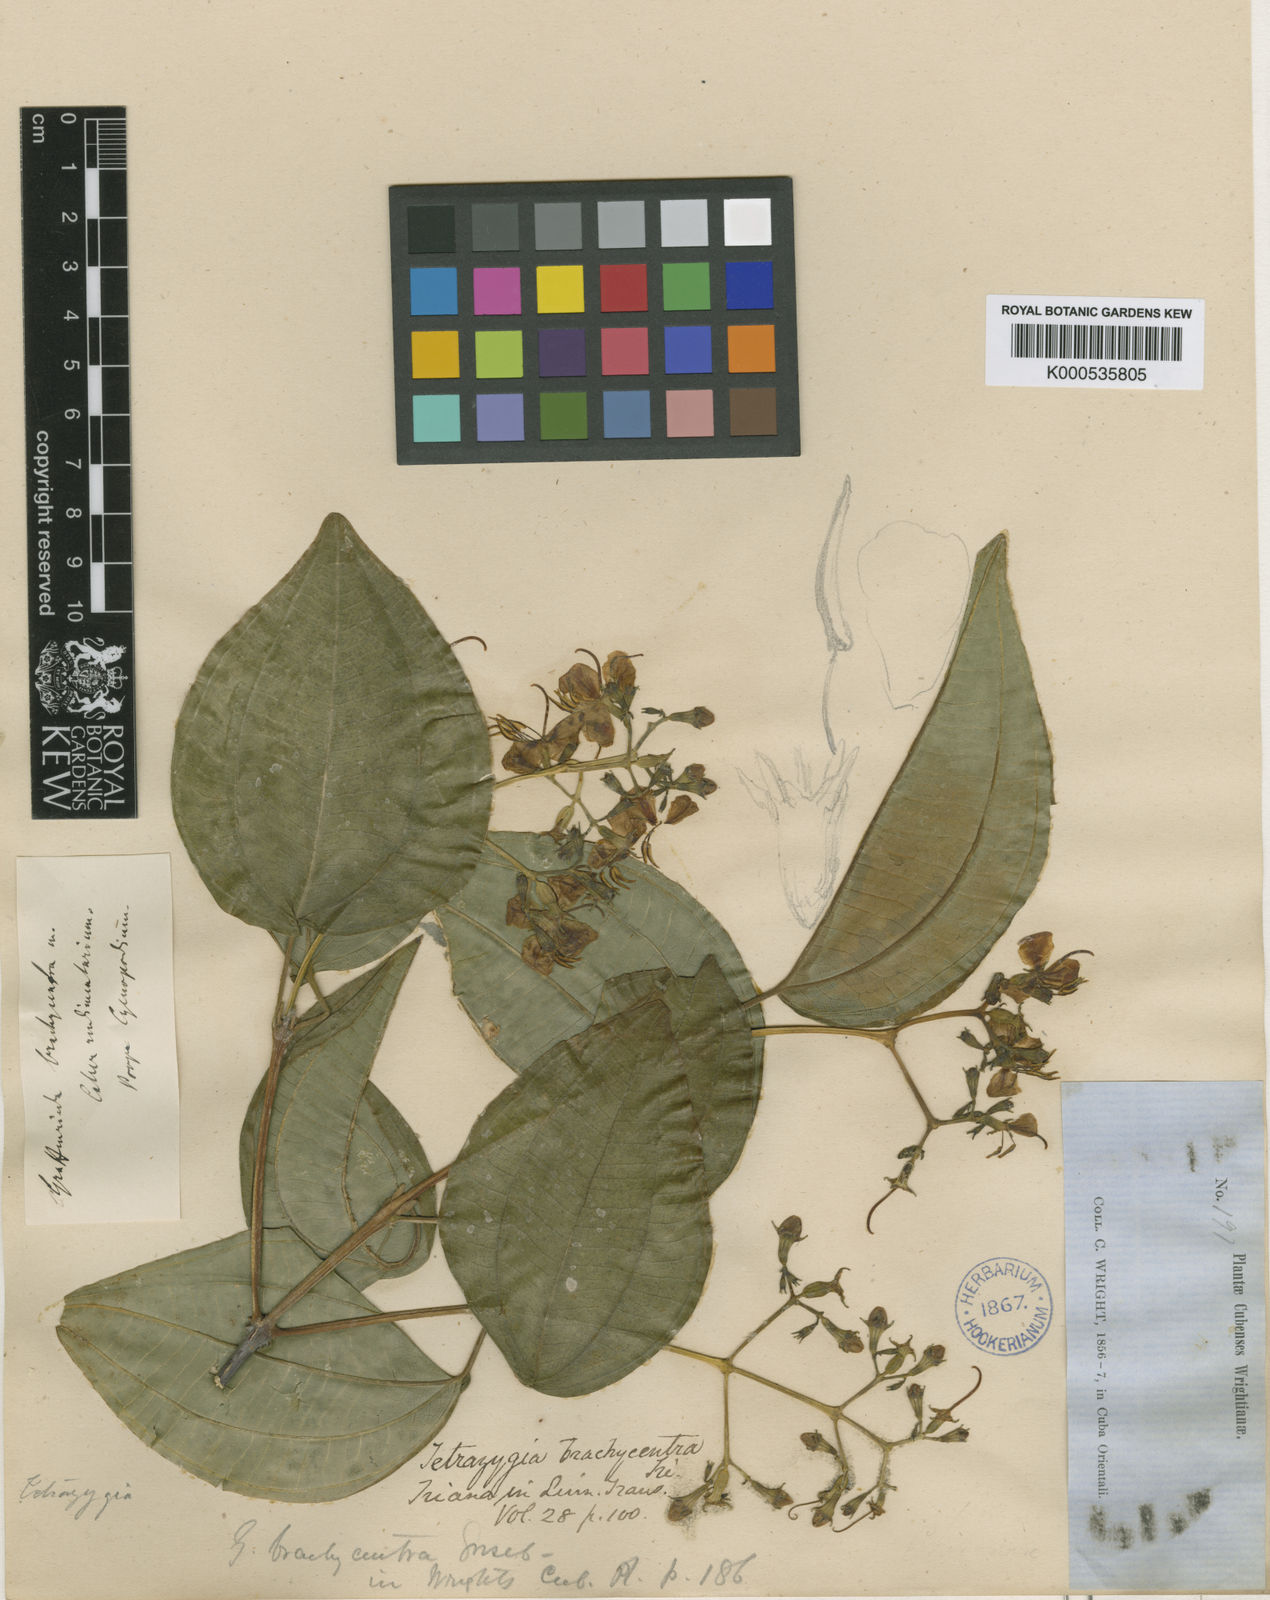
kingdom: Plantae
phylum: Tracheophyta
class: Magnoliopsida
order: Myrtales
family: Melastomataceae
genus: Miconia
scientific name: Miconia brachycentra
